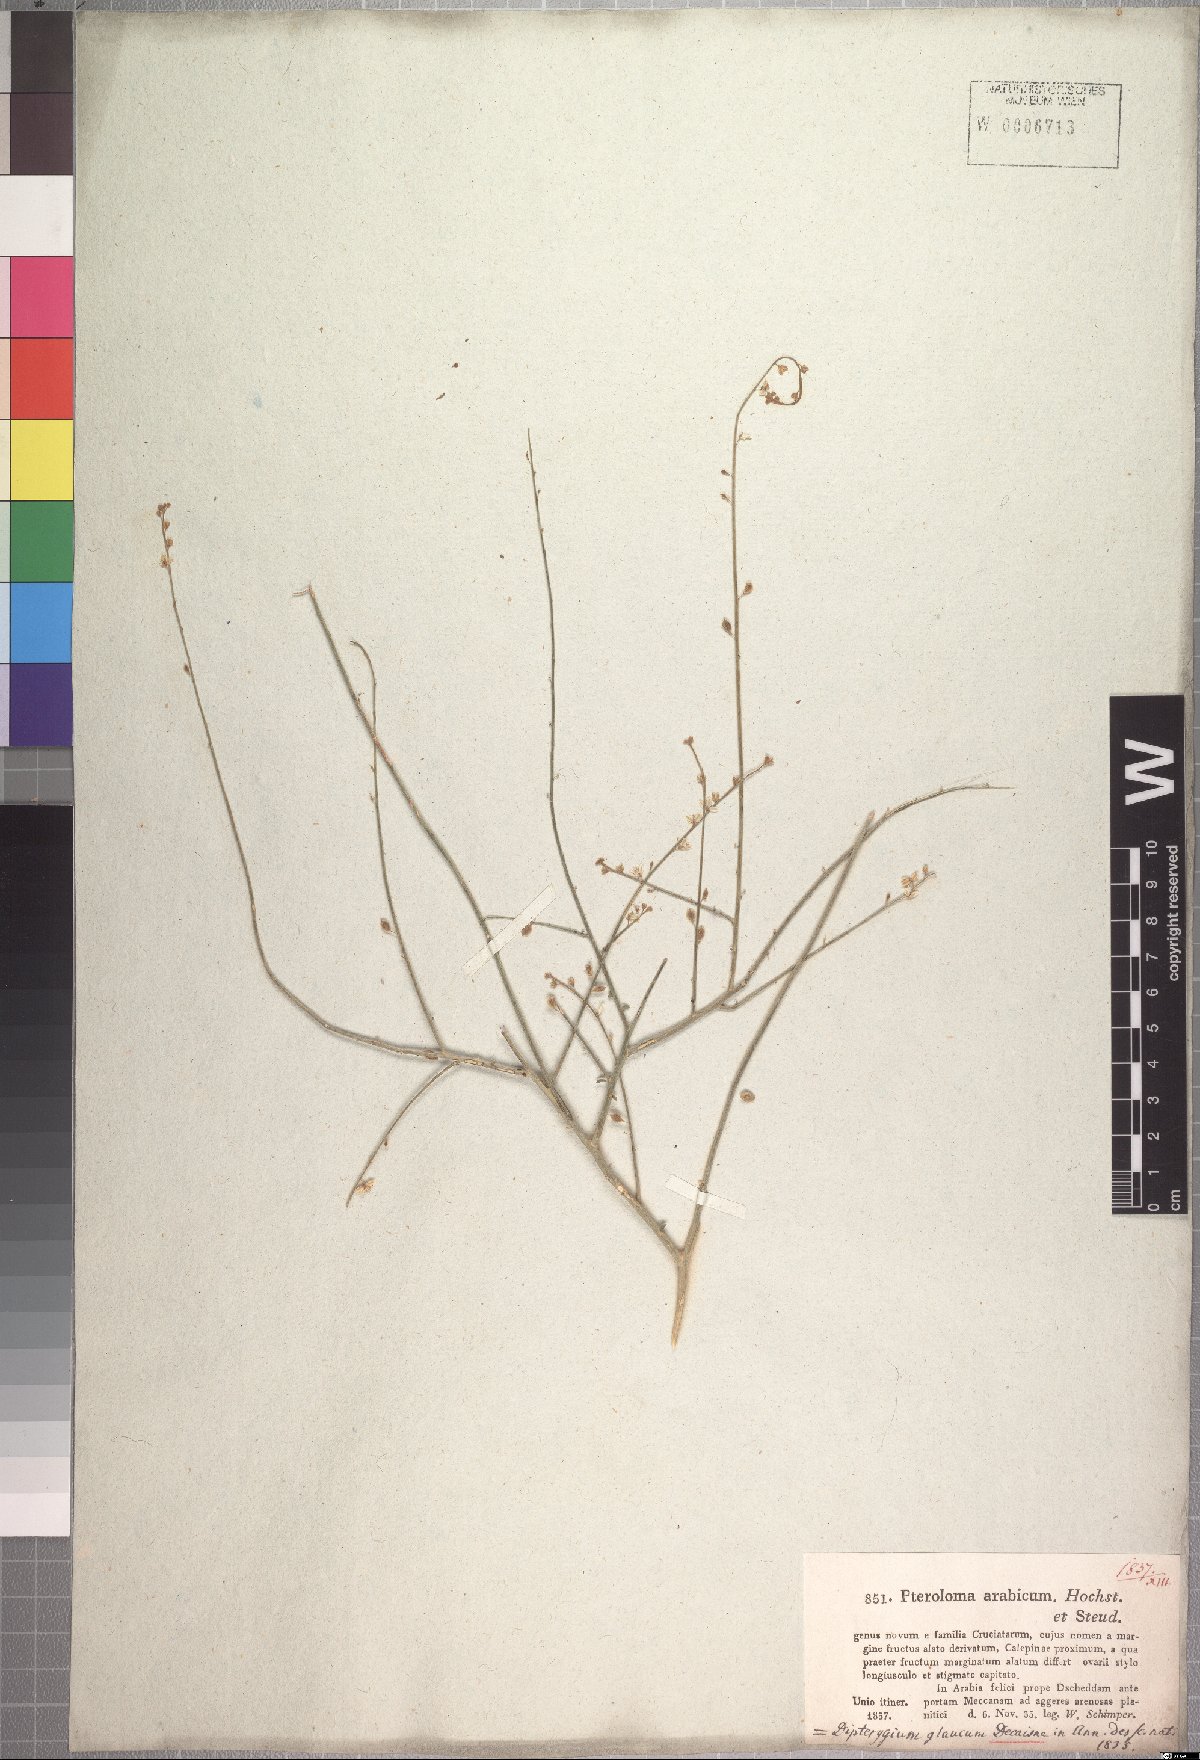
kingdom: Plantae
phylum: Tracheophyta
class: Magnoliopsida
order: Brassicales
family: Cleomaceae
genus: Dipterygium
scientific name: Dipterygium glaucum
